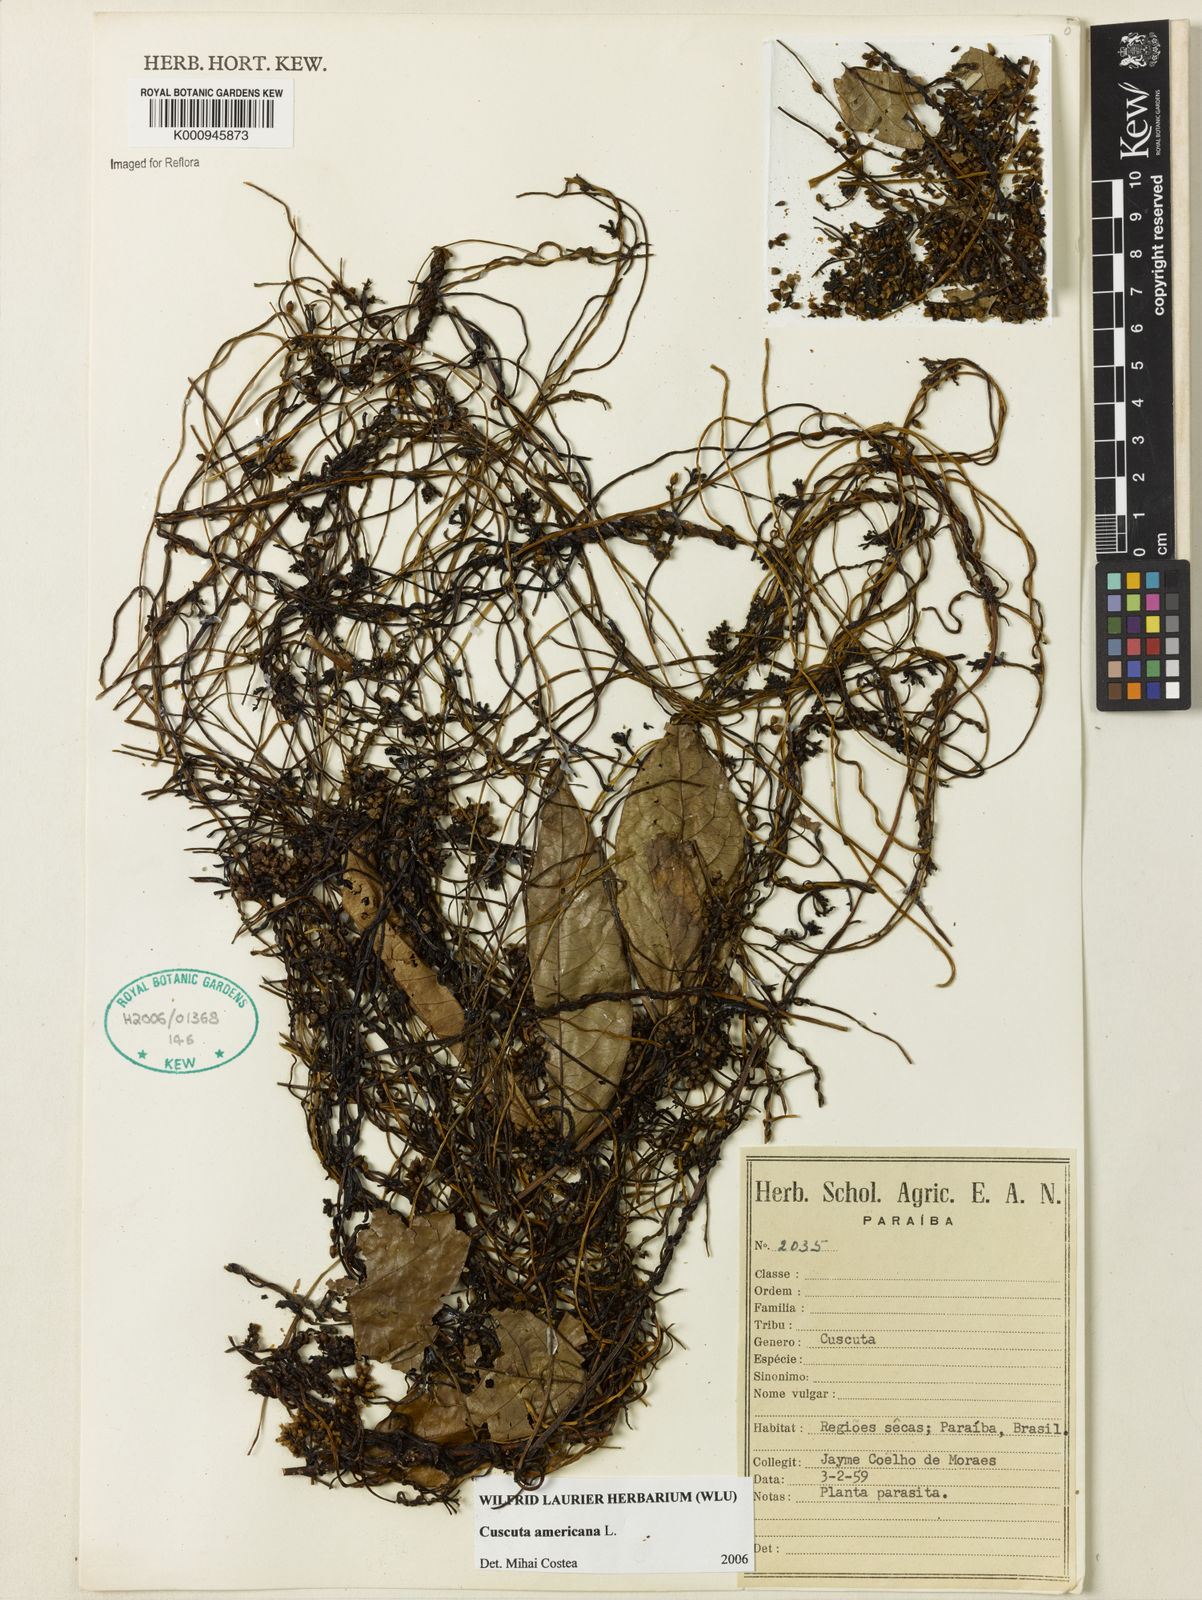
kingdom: Plantae
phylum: Tracheophyta
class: Magnoliopsida
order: Solanales
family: Convolvulaceae
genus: Cuscuta
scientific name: Cuscuta americana
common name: American dodder
